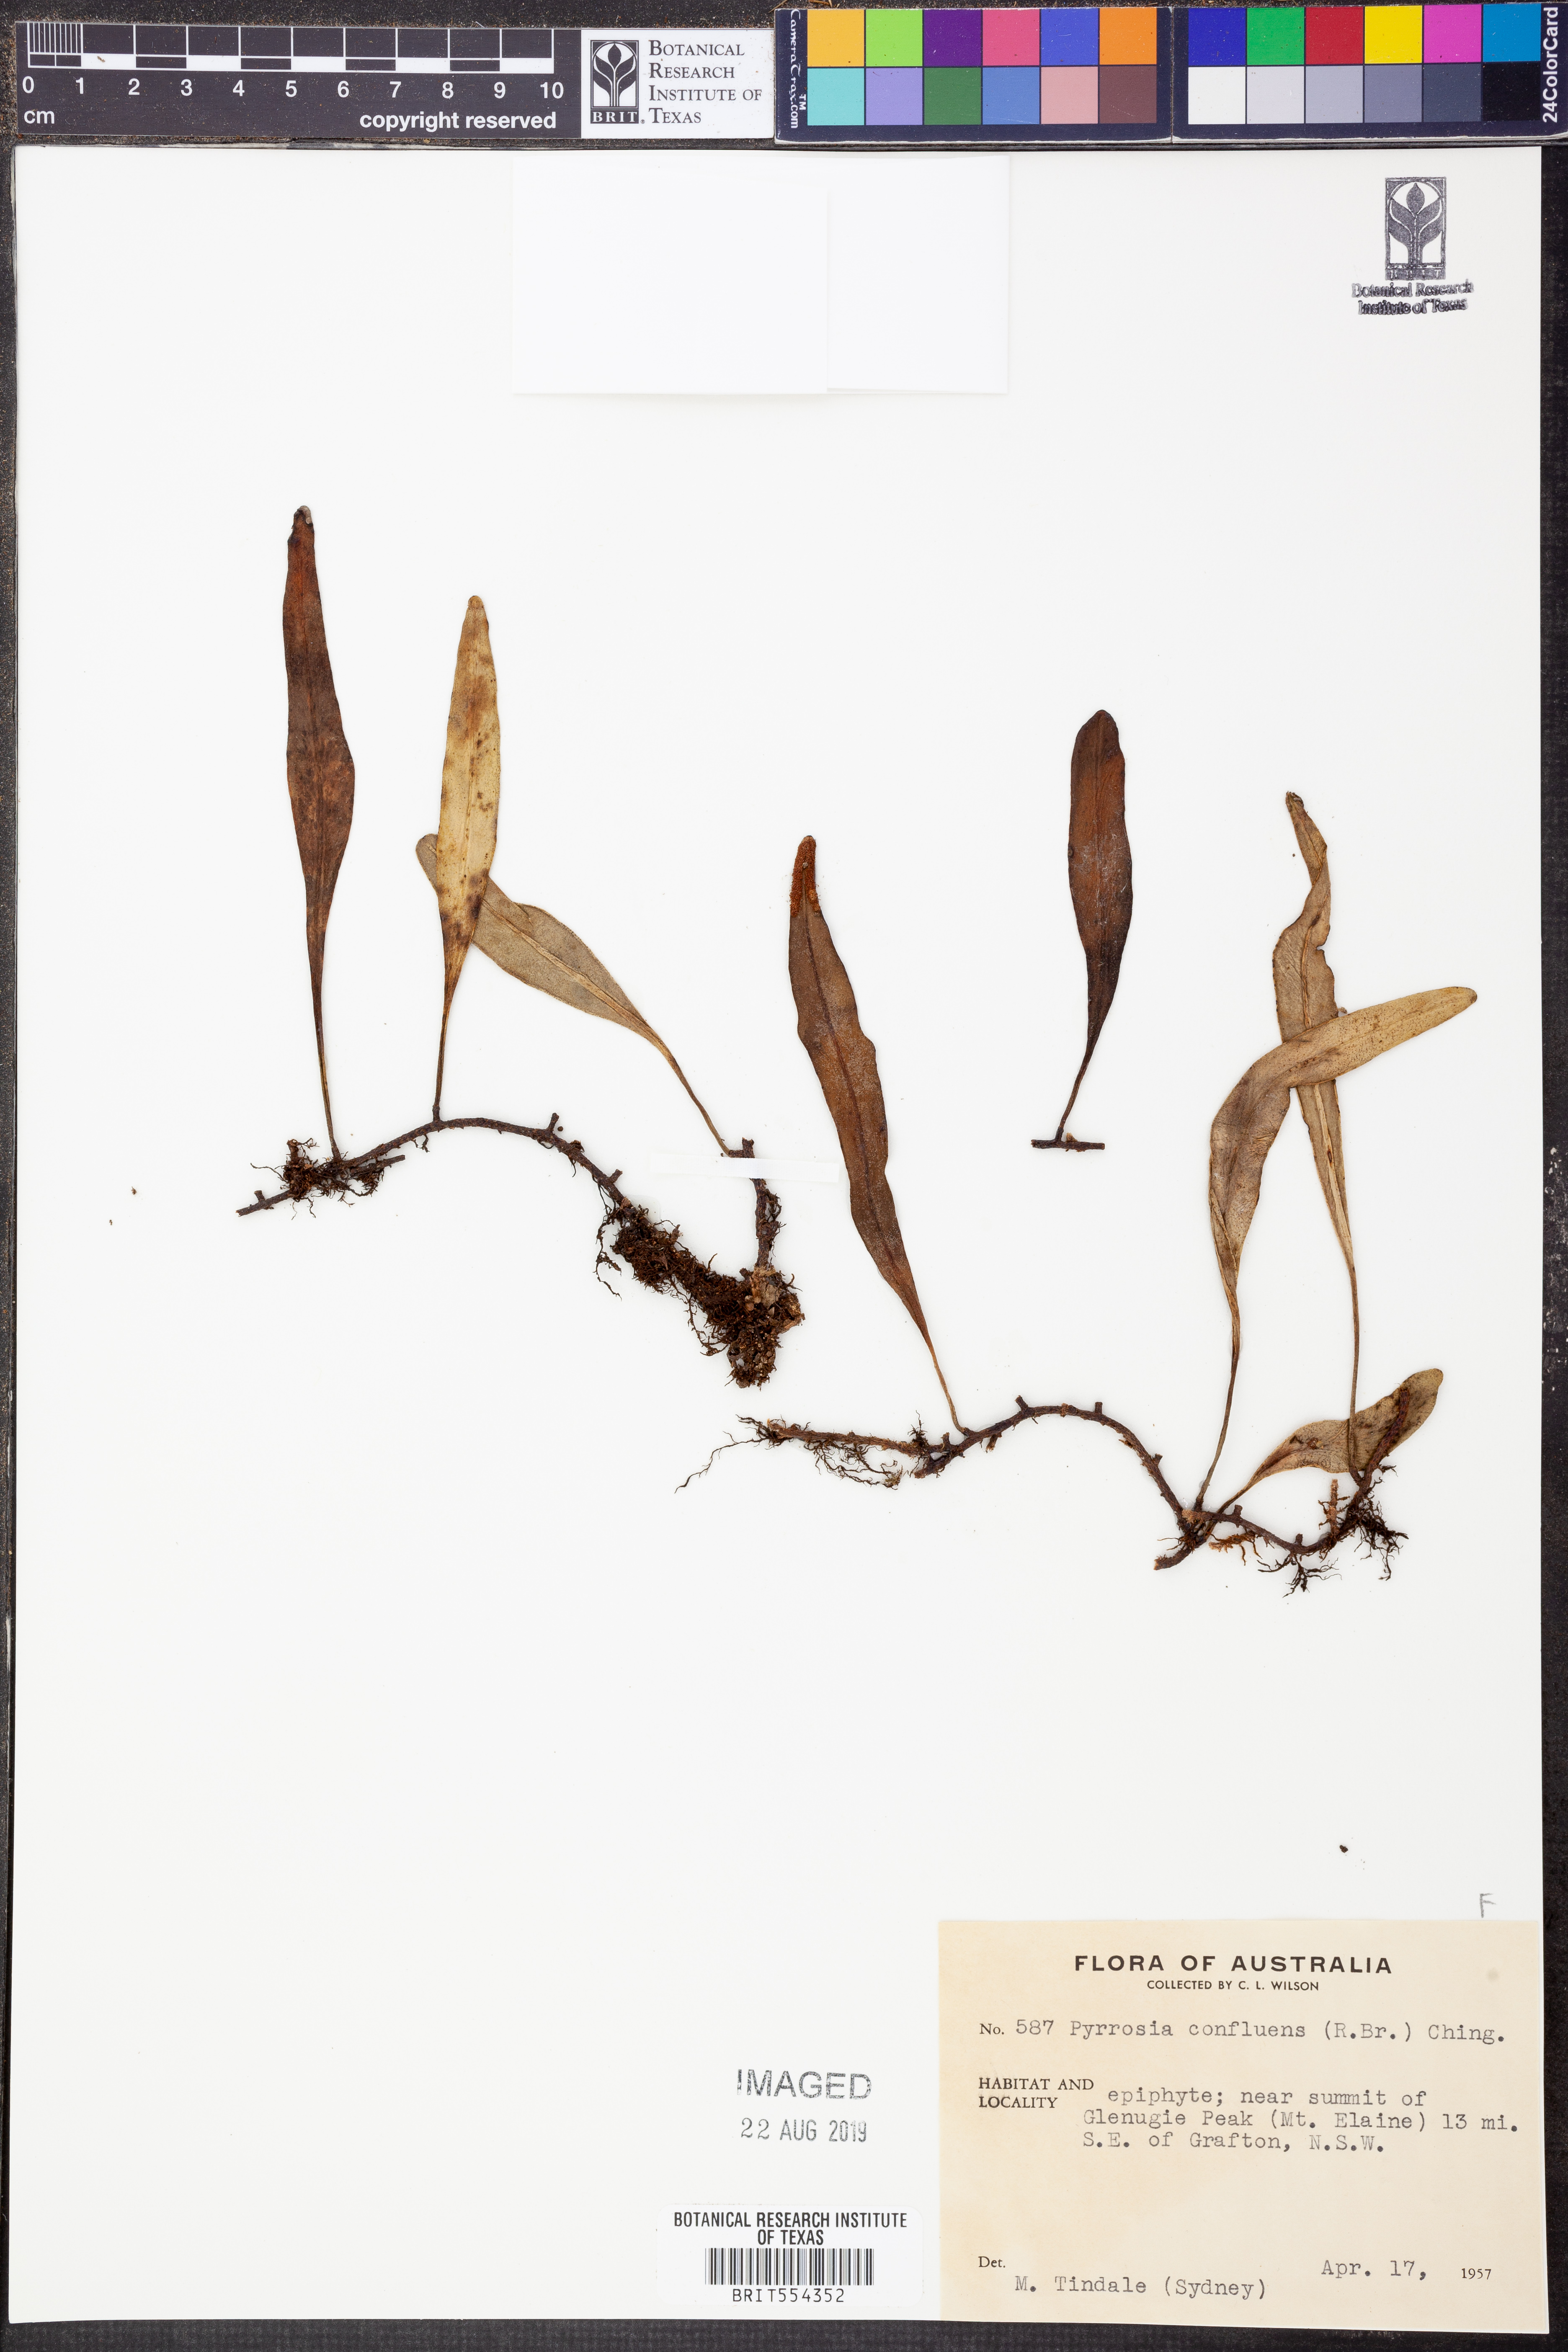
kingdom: Plantae
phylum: Tracheophyta
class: Polypodiopsida
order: Polypodiales
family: Polypodiaceae
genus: Pyrrosia
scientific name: Pyrrosia confluens
